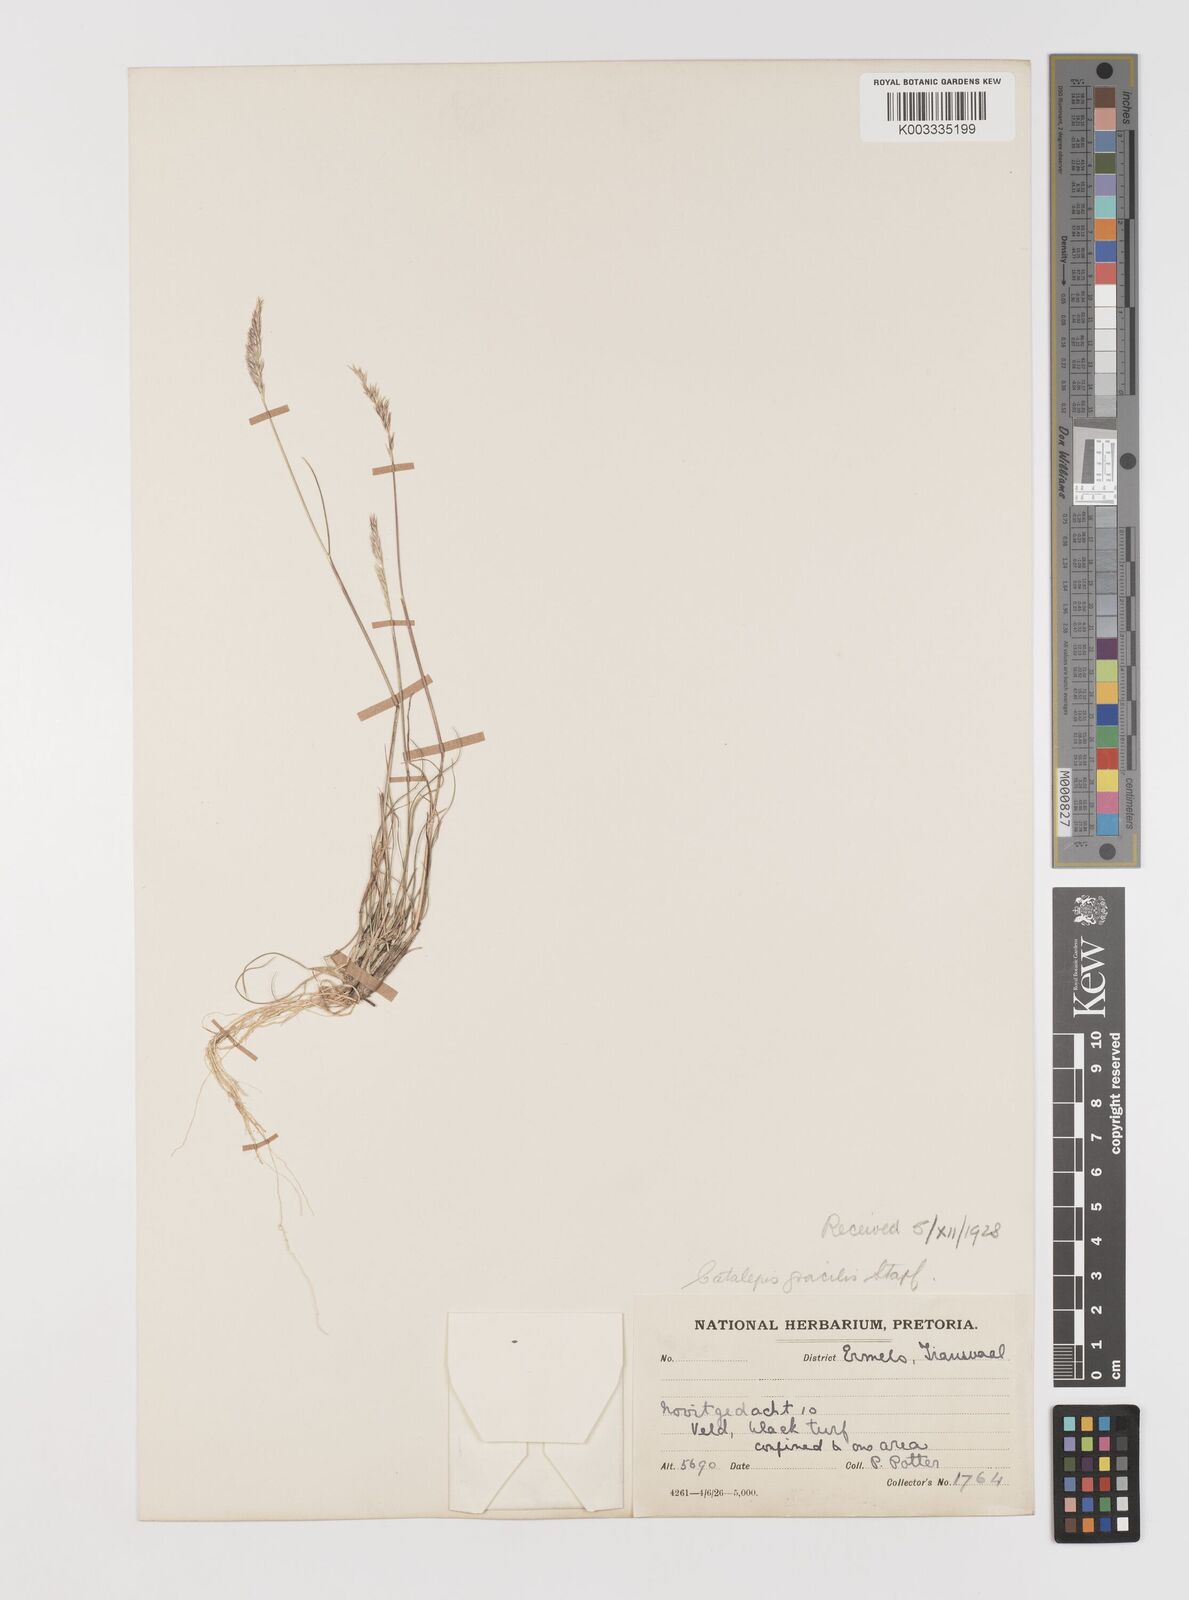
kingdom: Plantae
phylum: Tracheophyta
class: Liliopsida
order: Poales
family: Poaceae
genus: Catalepis
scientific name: Catalepis gracilis
